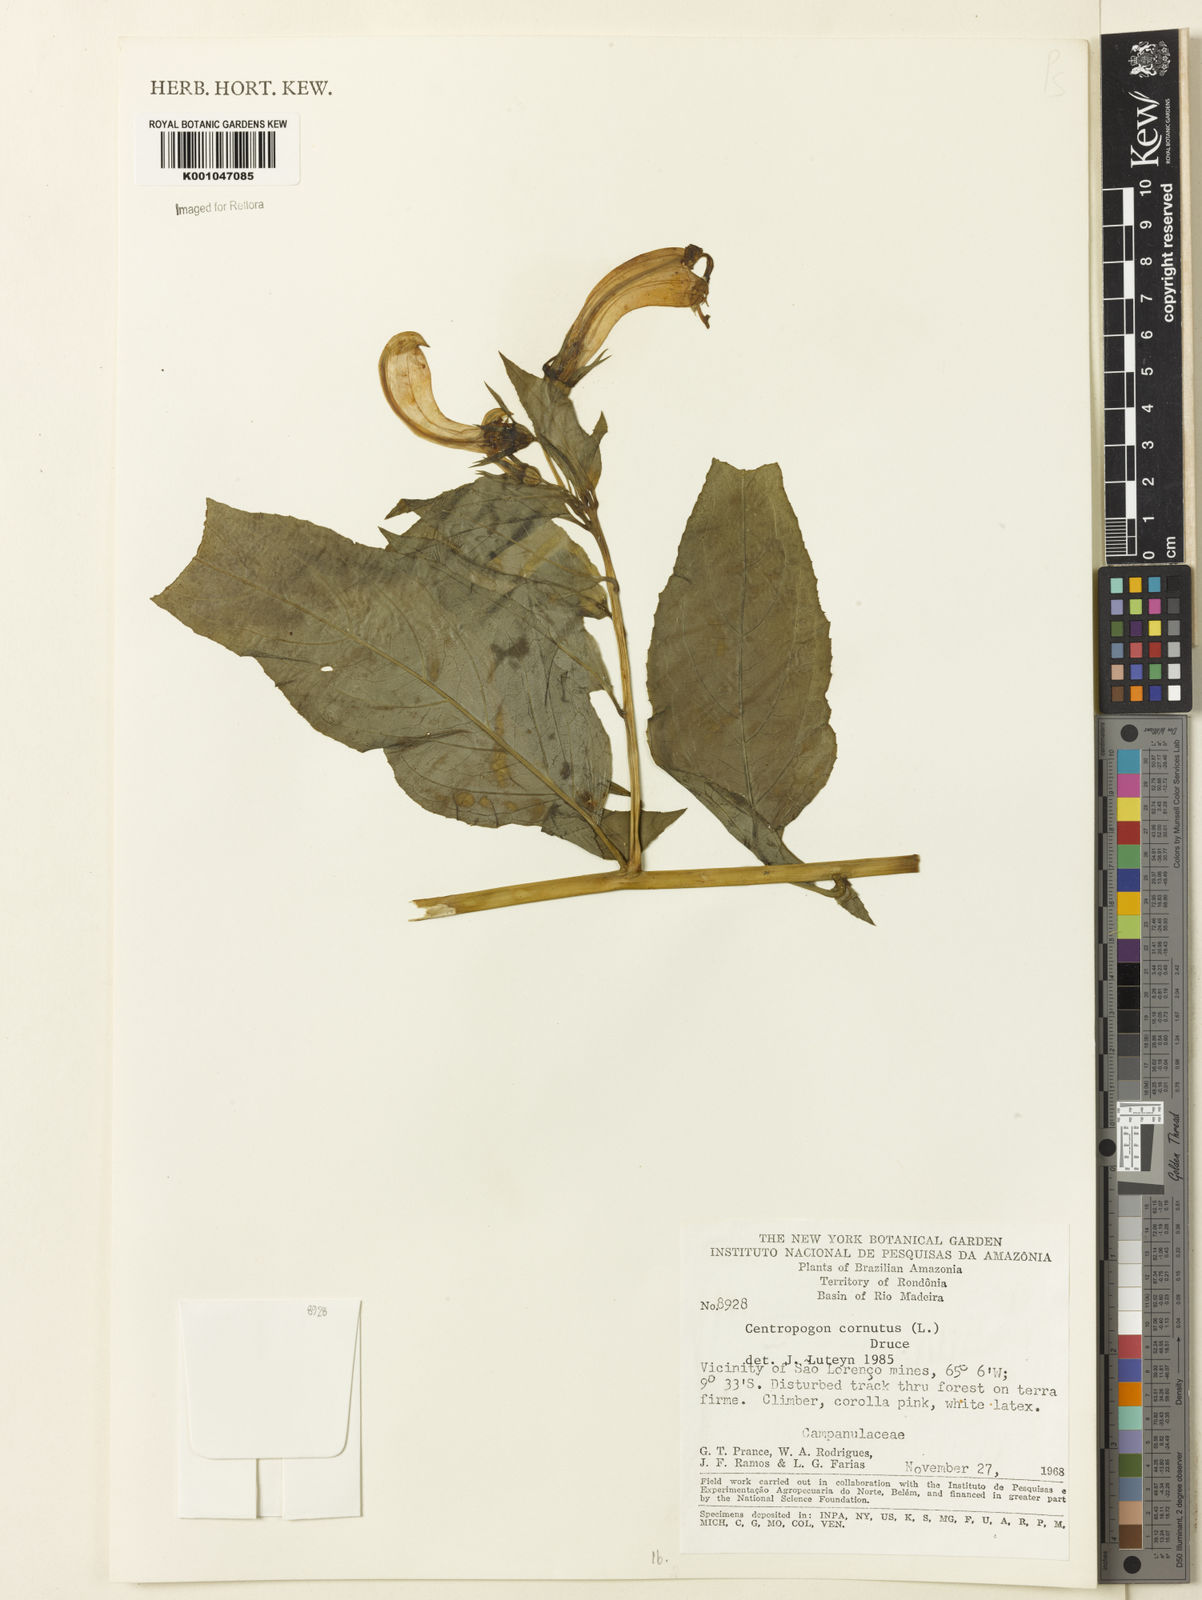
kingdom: Plantae
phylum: Tracheophyta
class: Magnoliopsida
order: Asterales
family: Campanulaceae
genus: Centropogon
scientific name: Centropogon cornutus
